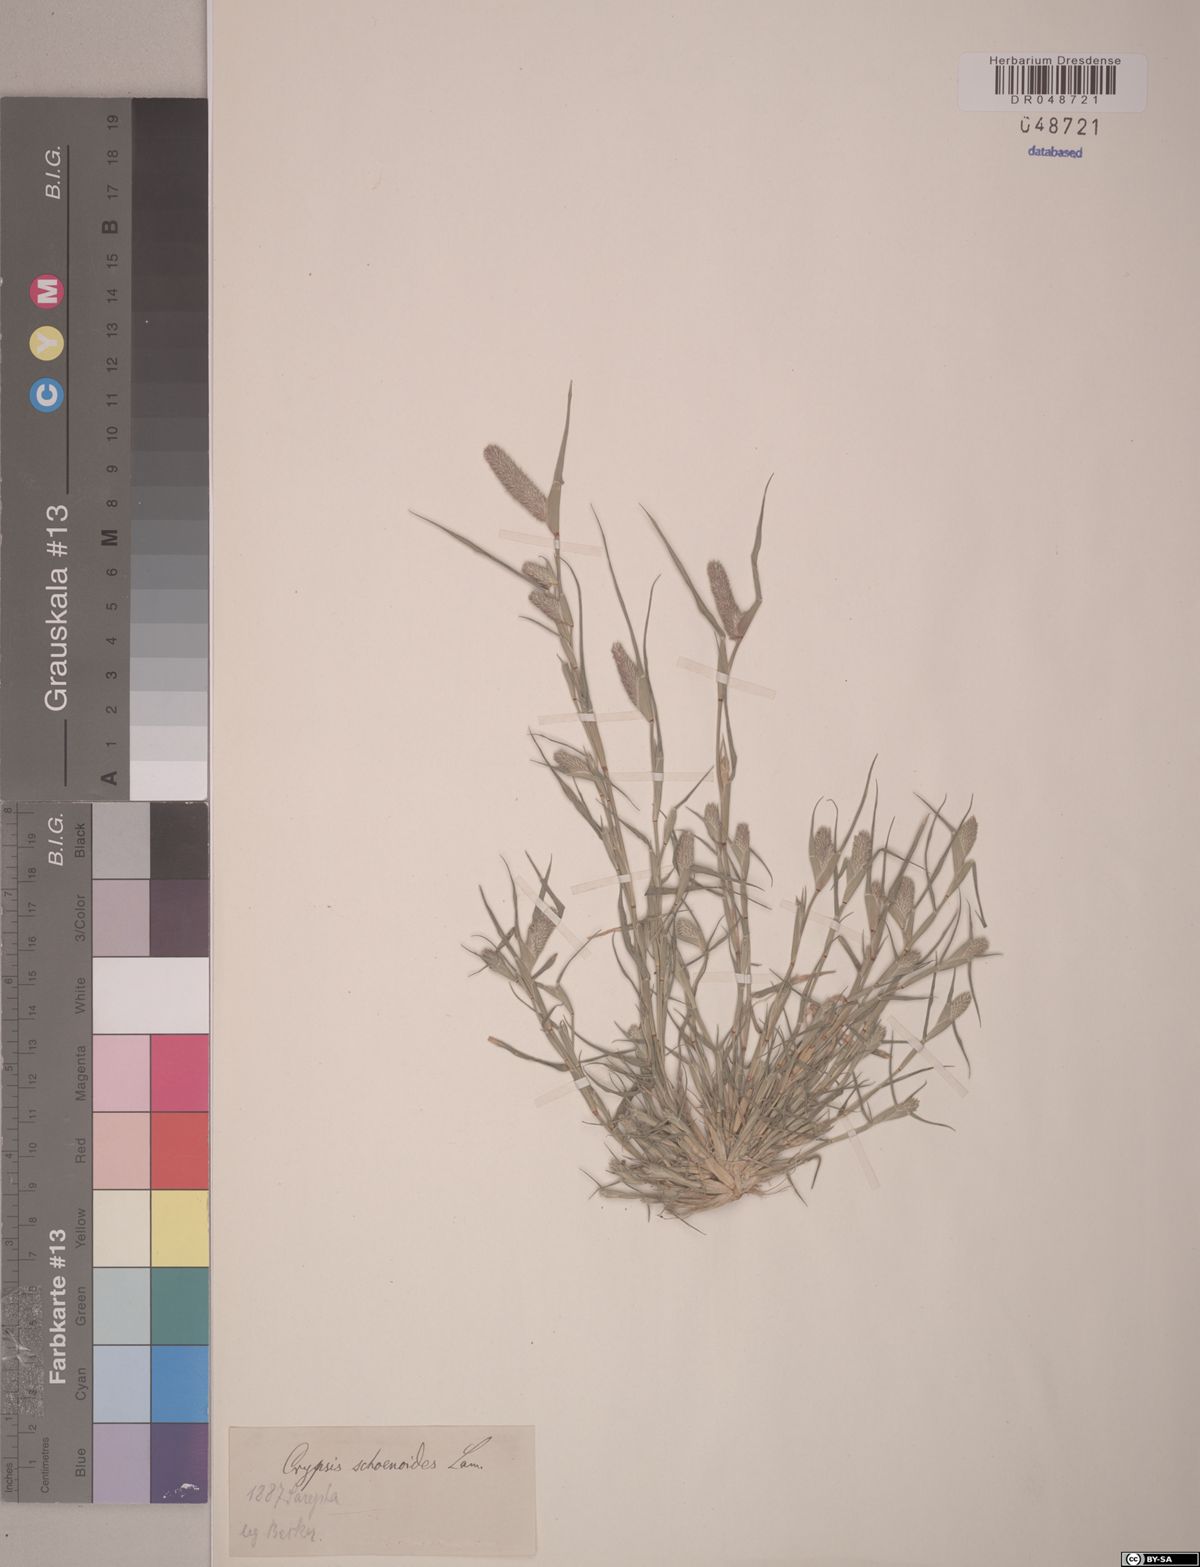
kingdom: Plantae
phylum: Tracheophyta
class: Liliopsida
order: Poales
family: Poaceae
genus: Sporobolus
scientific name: Sporobolus schoenoides
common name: Rush-like timothy
